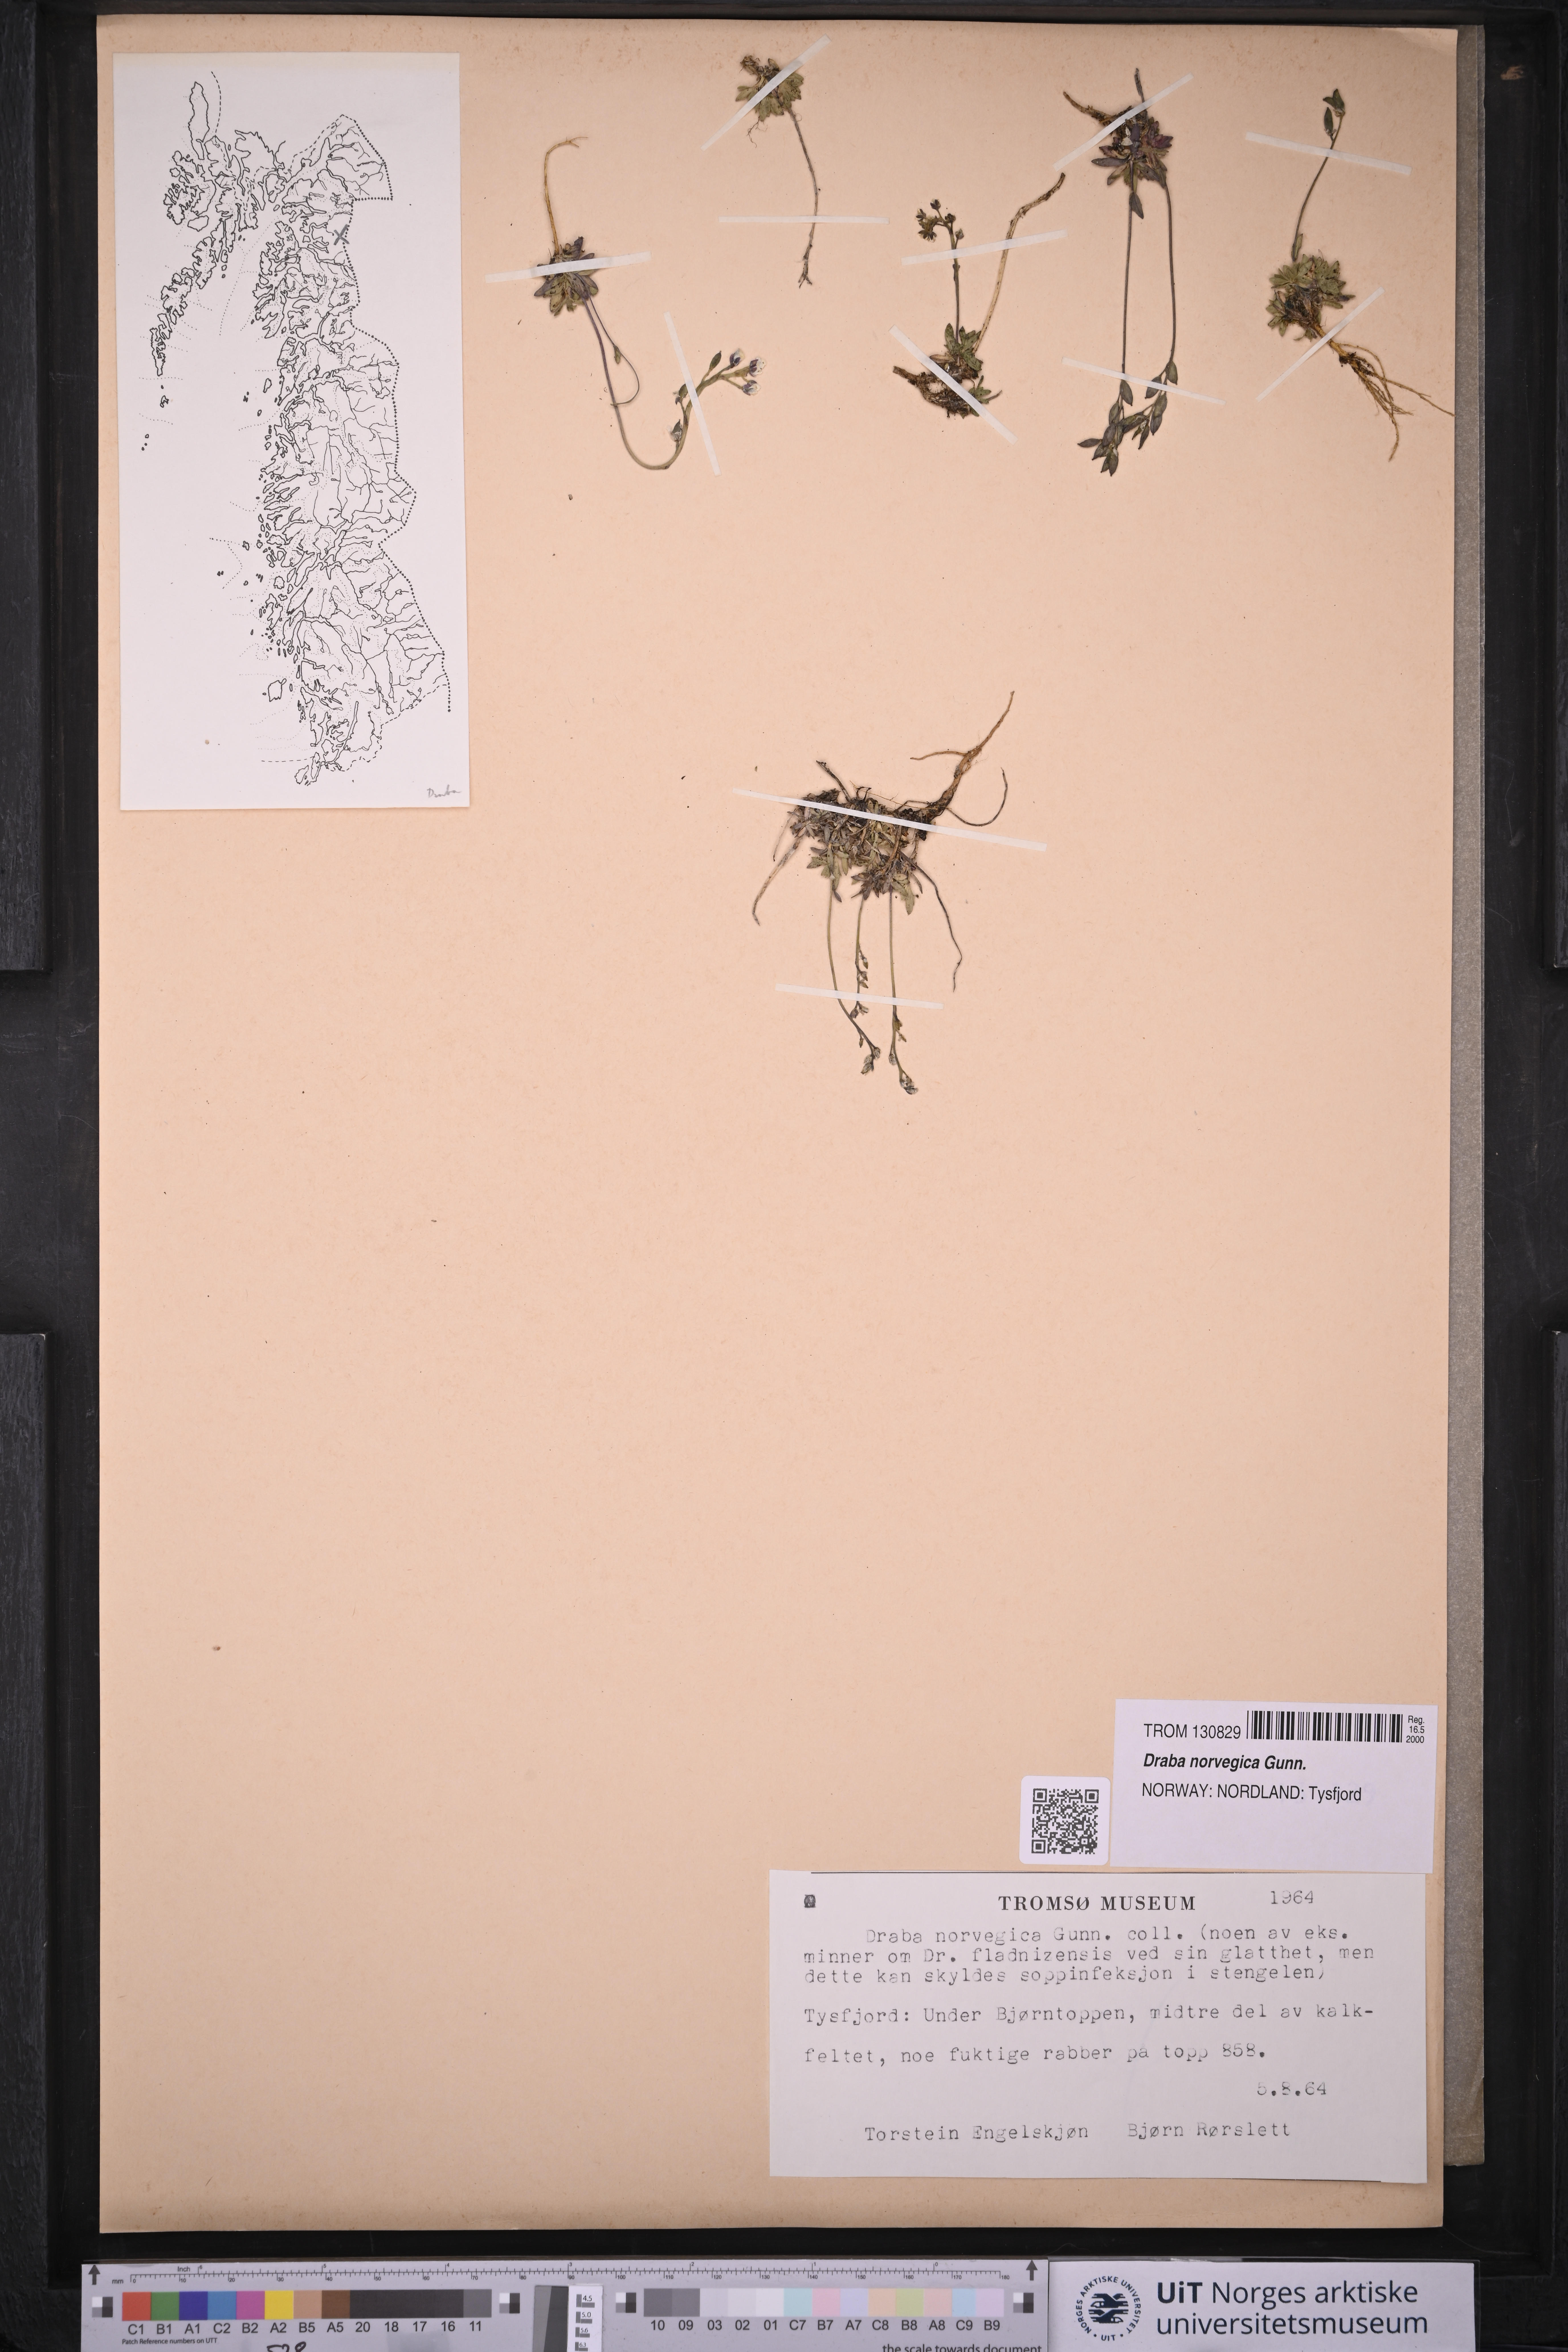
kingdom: Plantae
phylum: Tracheophyta
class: Magnoliopsida
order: Brassicales
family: Brassicaceae
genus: Draba
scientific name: Draba norvegica
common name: Rock whitlowgrass
